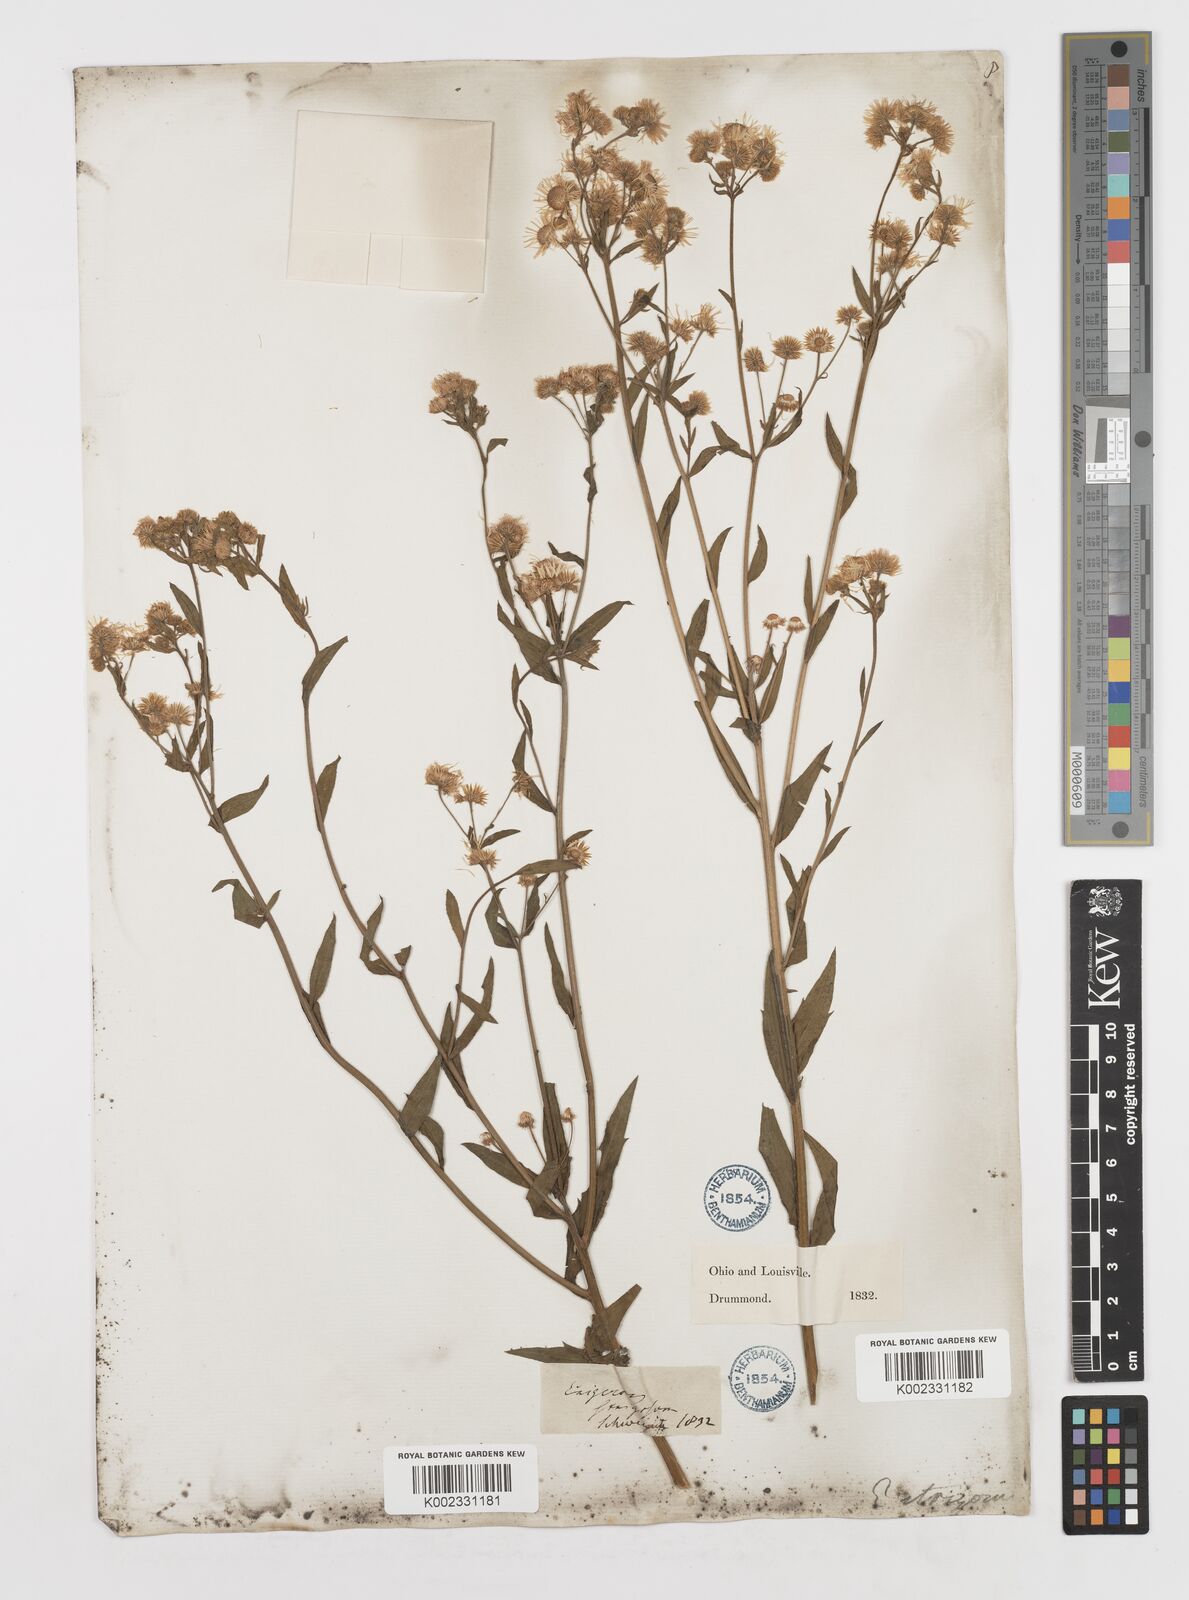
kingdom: Plantae
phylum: Tracheophyta
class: Magnoliopsida
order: Asterales
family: Asteraceae
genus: Erigeron
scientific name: Erigeron
